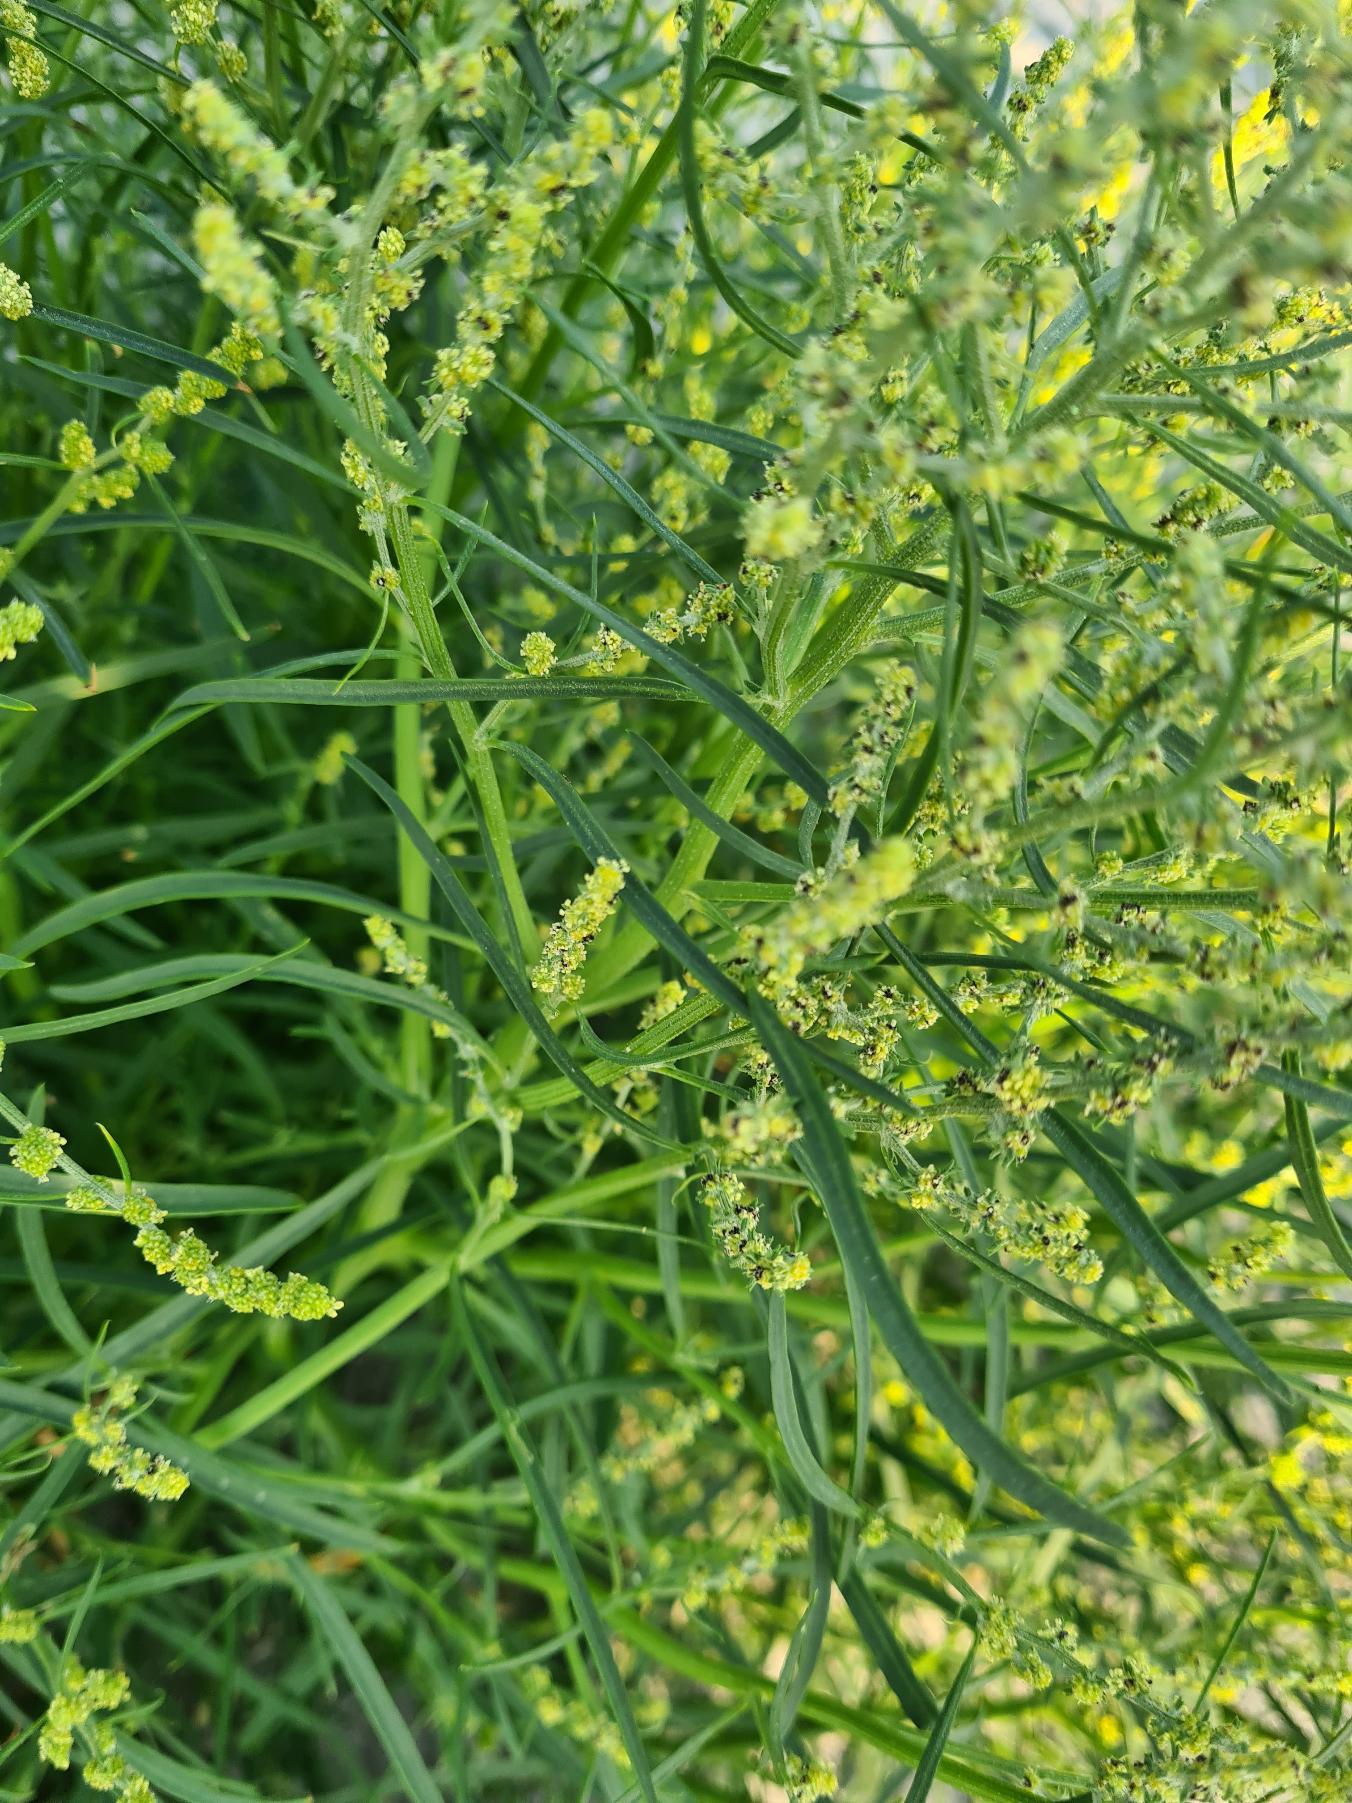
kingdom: Plantae
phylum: Tracheophyta
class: Magnoliopsida
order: Caryophyllales
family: Amaranthaceae
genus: Atriplex
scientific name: Atriplex littoralis
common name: Strand-mælde
